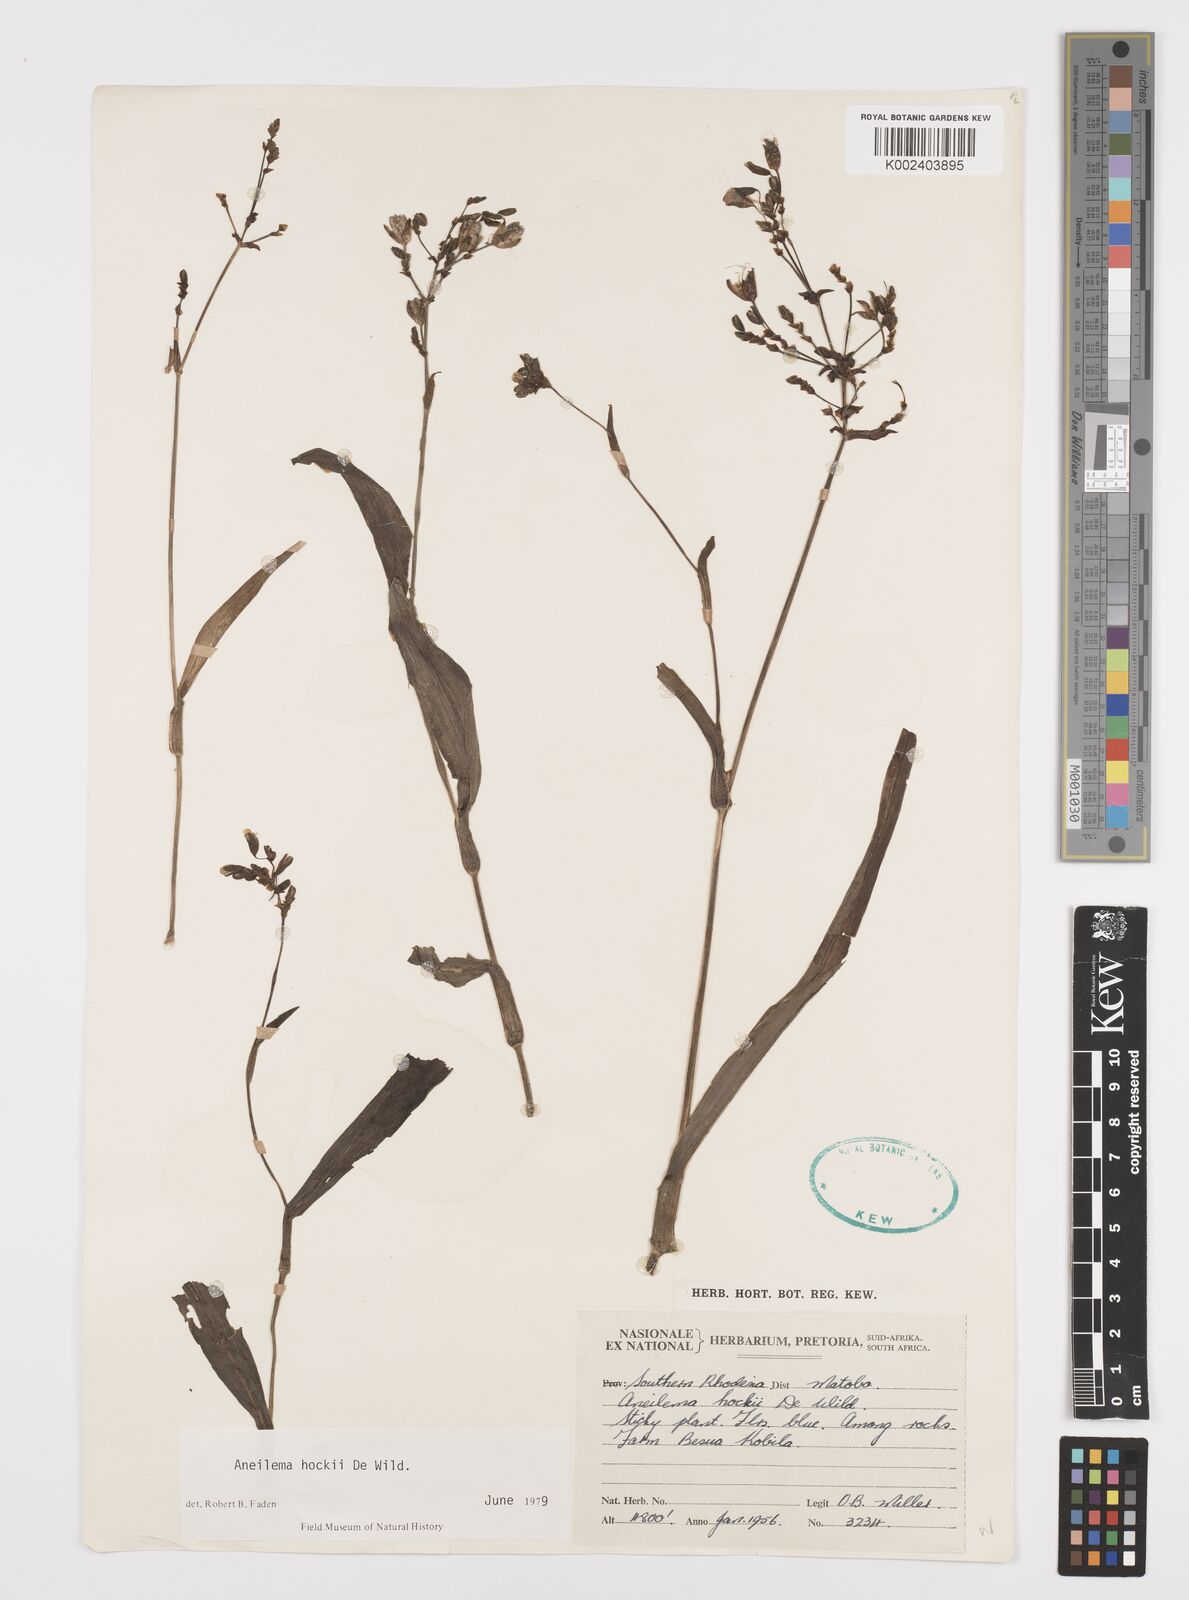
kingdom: Plantae
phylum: Tracheophyta
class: Liliopsida
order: Commelinales
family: Commelinaceae
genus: Aneilema
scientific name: Aneilema hockii
